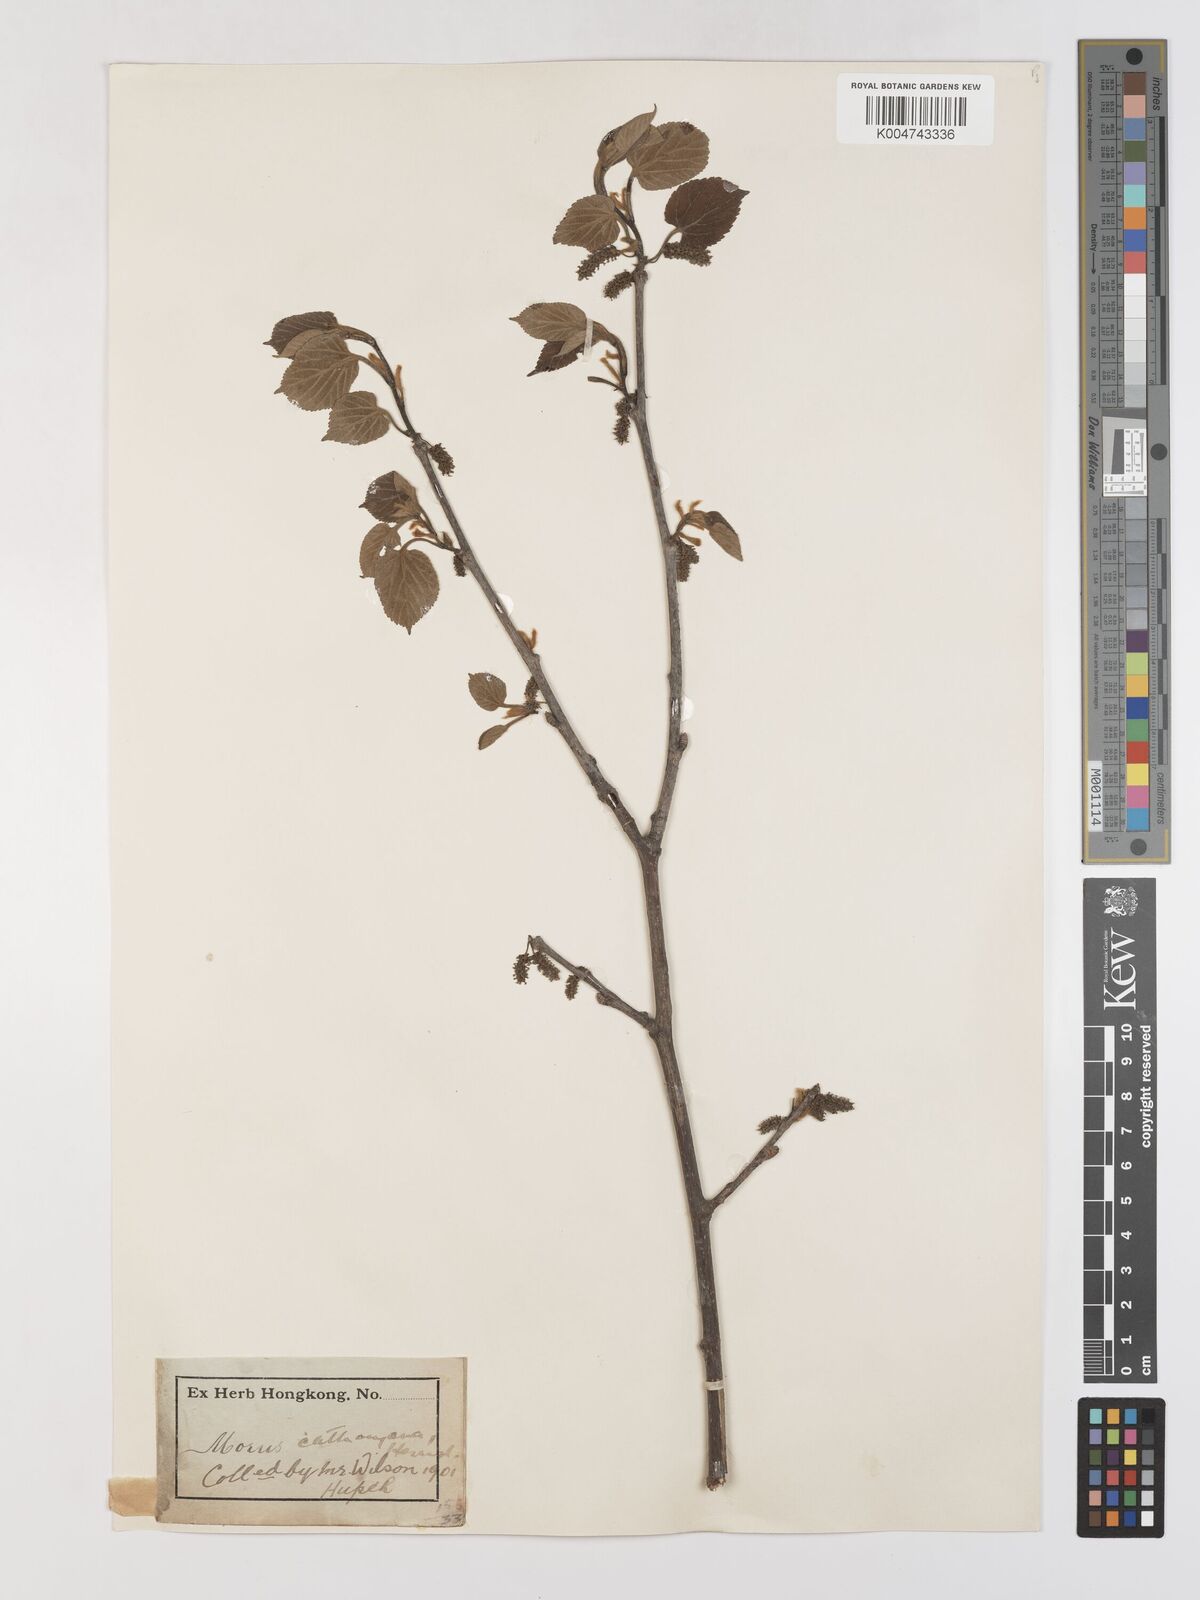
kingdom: Plantae
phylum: Tracheophyta
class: Magnoliopsida
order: Rosales
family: Moraceae
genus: Morus
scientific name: Morus cathayana
